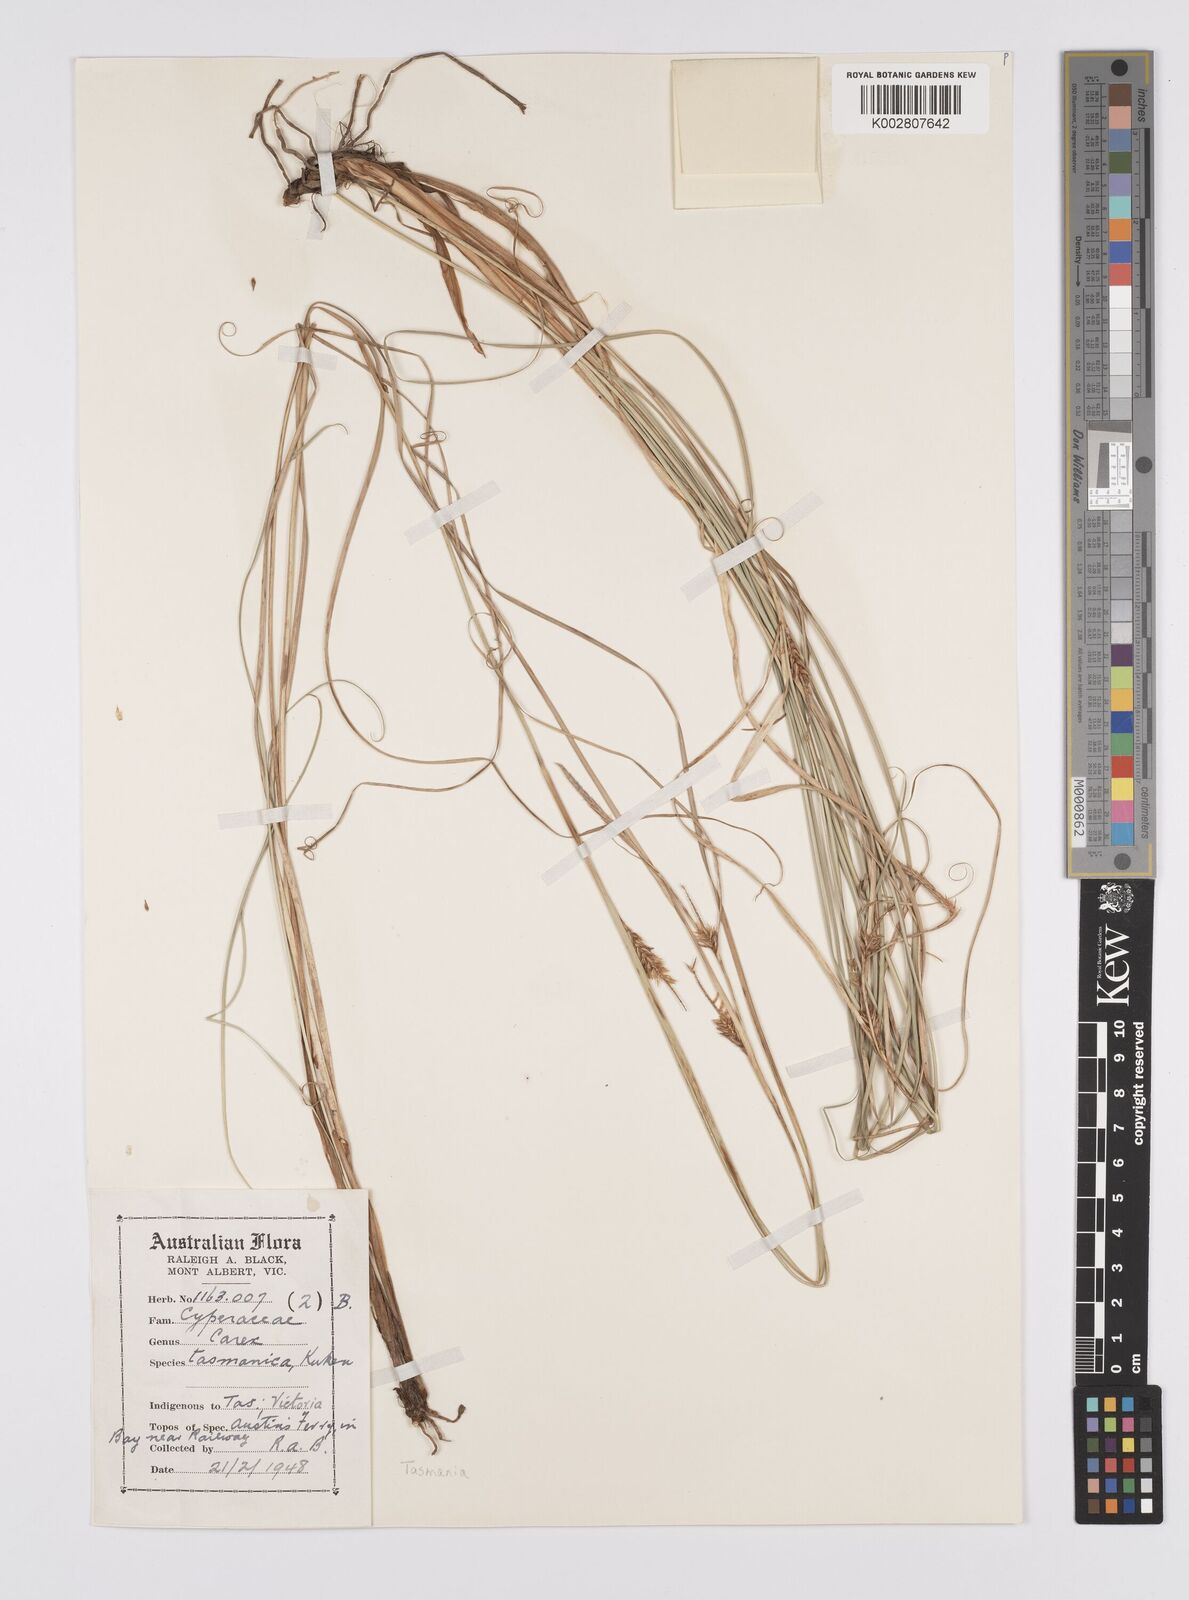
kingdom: Plantae
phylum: Tracheophyta
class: Liliopsida
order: Poales
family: Cyperaceae
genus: Carex
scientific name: Carex tasmanica
